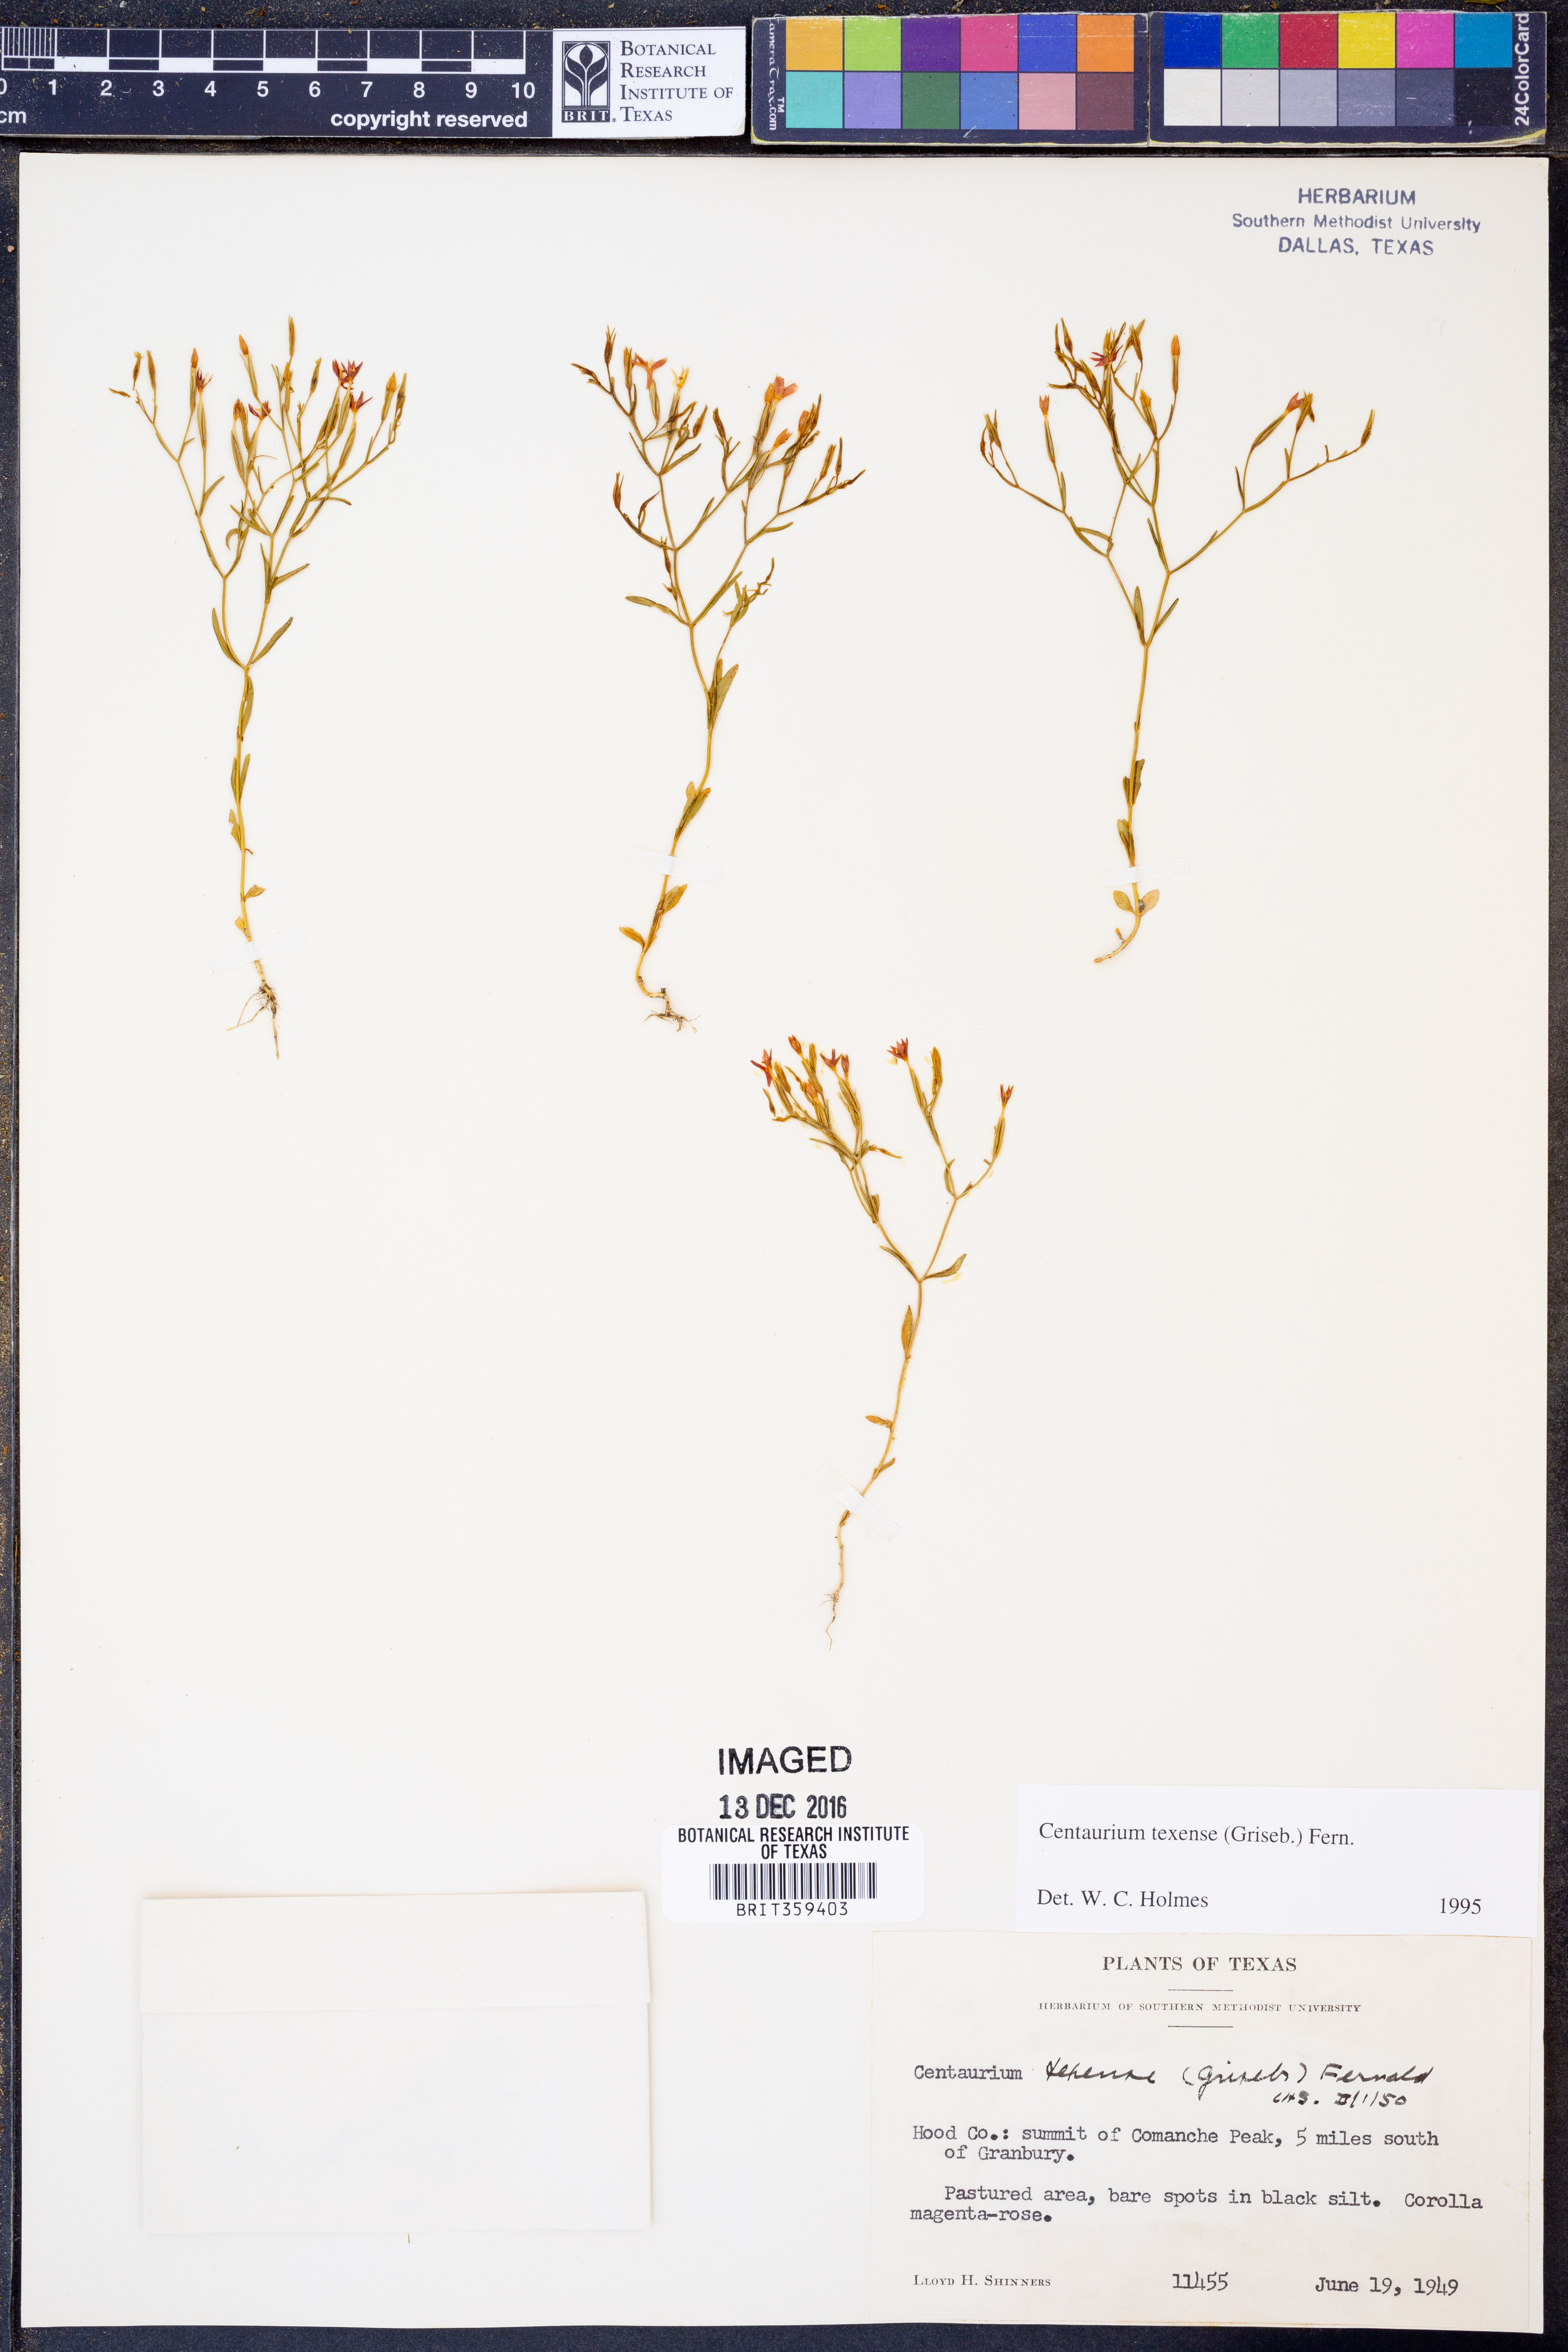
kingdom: Plantae
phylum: Tracheophyta
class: Magnoliopsida
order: Gentianales
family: Gentianaceae
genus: Zeltnera
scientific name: Zeltnera texensis
